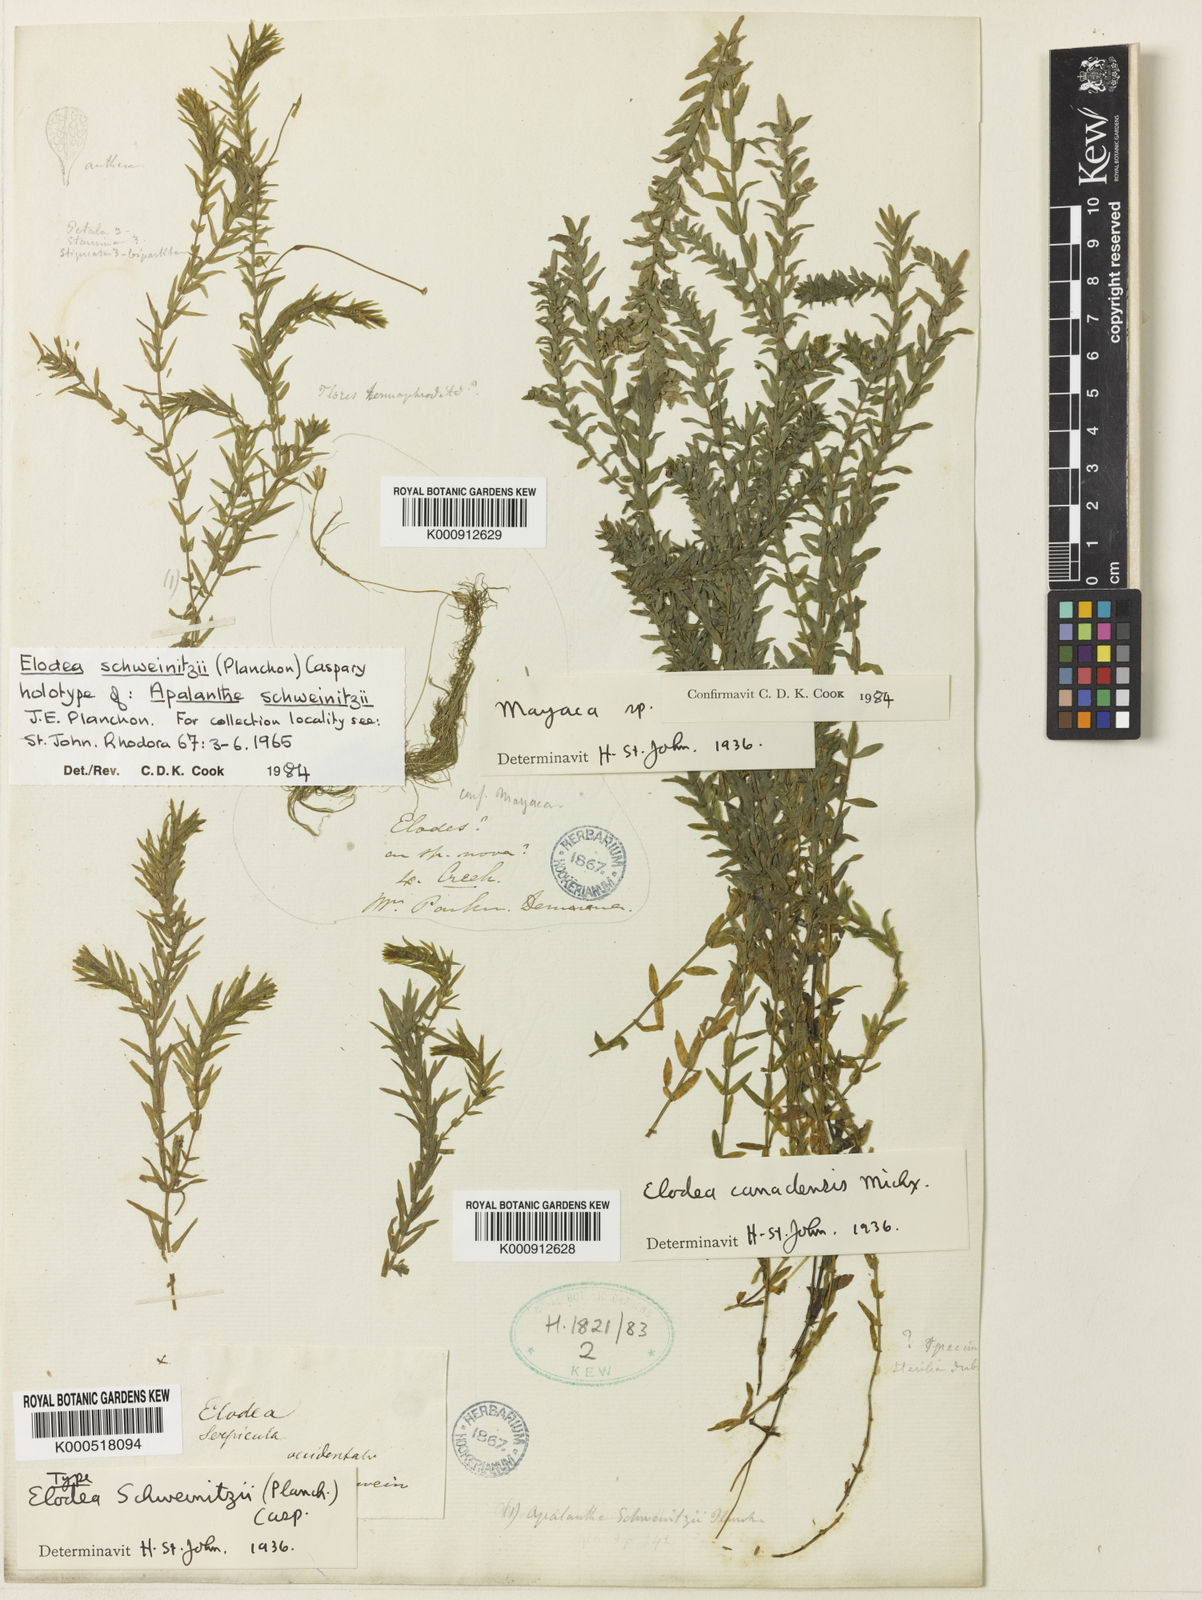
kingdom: Plantae
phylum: Tracheophyta
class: Liliopsida
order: Alismatales
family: Hydrocharitaceae
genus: Elodea
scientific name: Elodea canadensis
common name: Canadian waterweed
